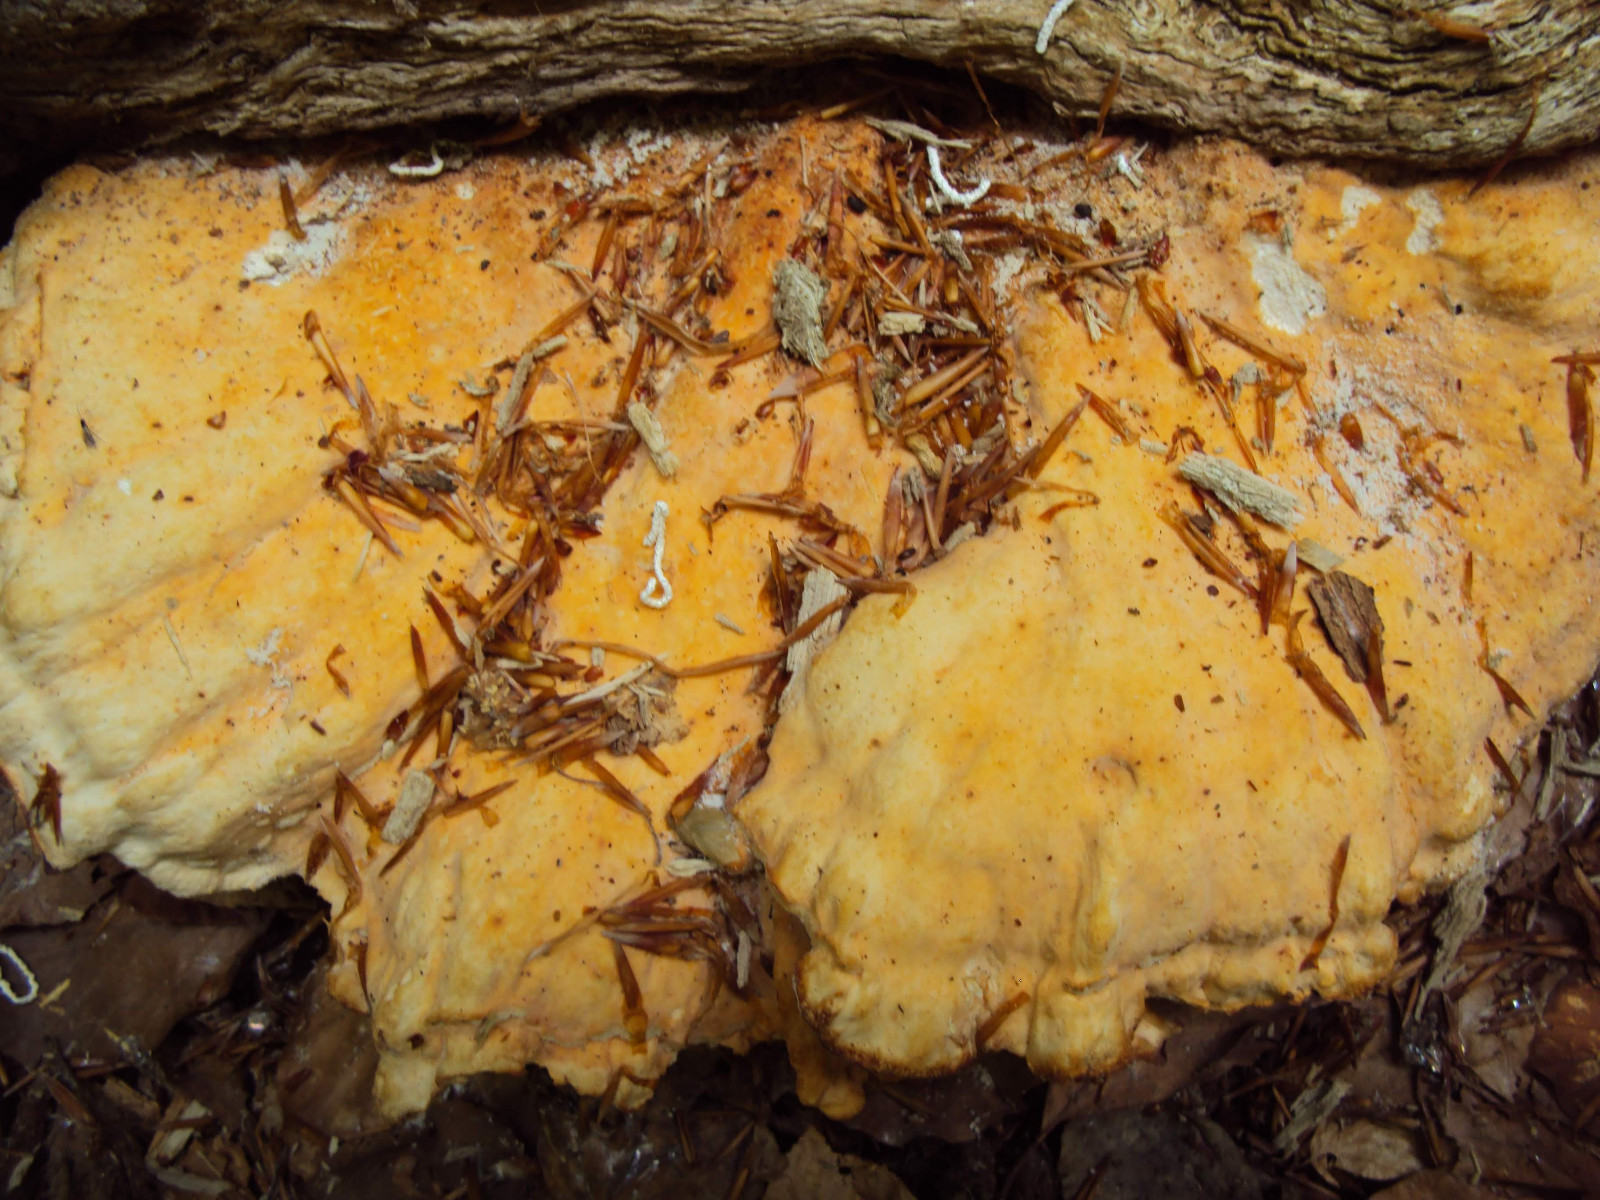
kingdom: Fungi
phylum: Basidiomycota
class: Agaricomycetes
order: Polyporales
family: Laetiporaceae
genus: Laetiporus
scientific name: Laetiporus sulphureus
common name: svovlporesvamp
